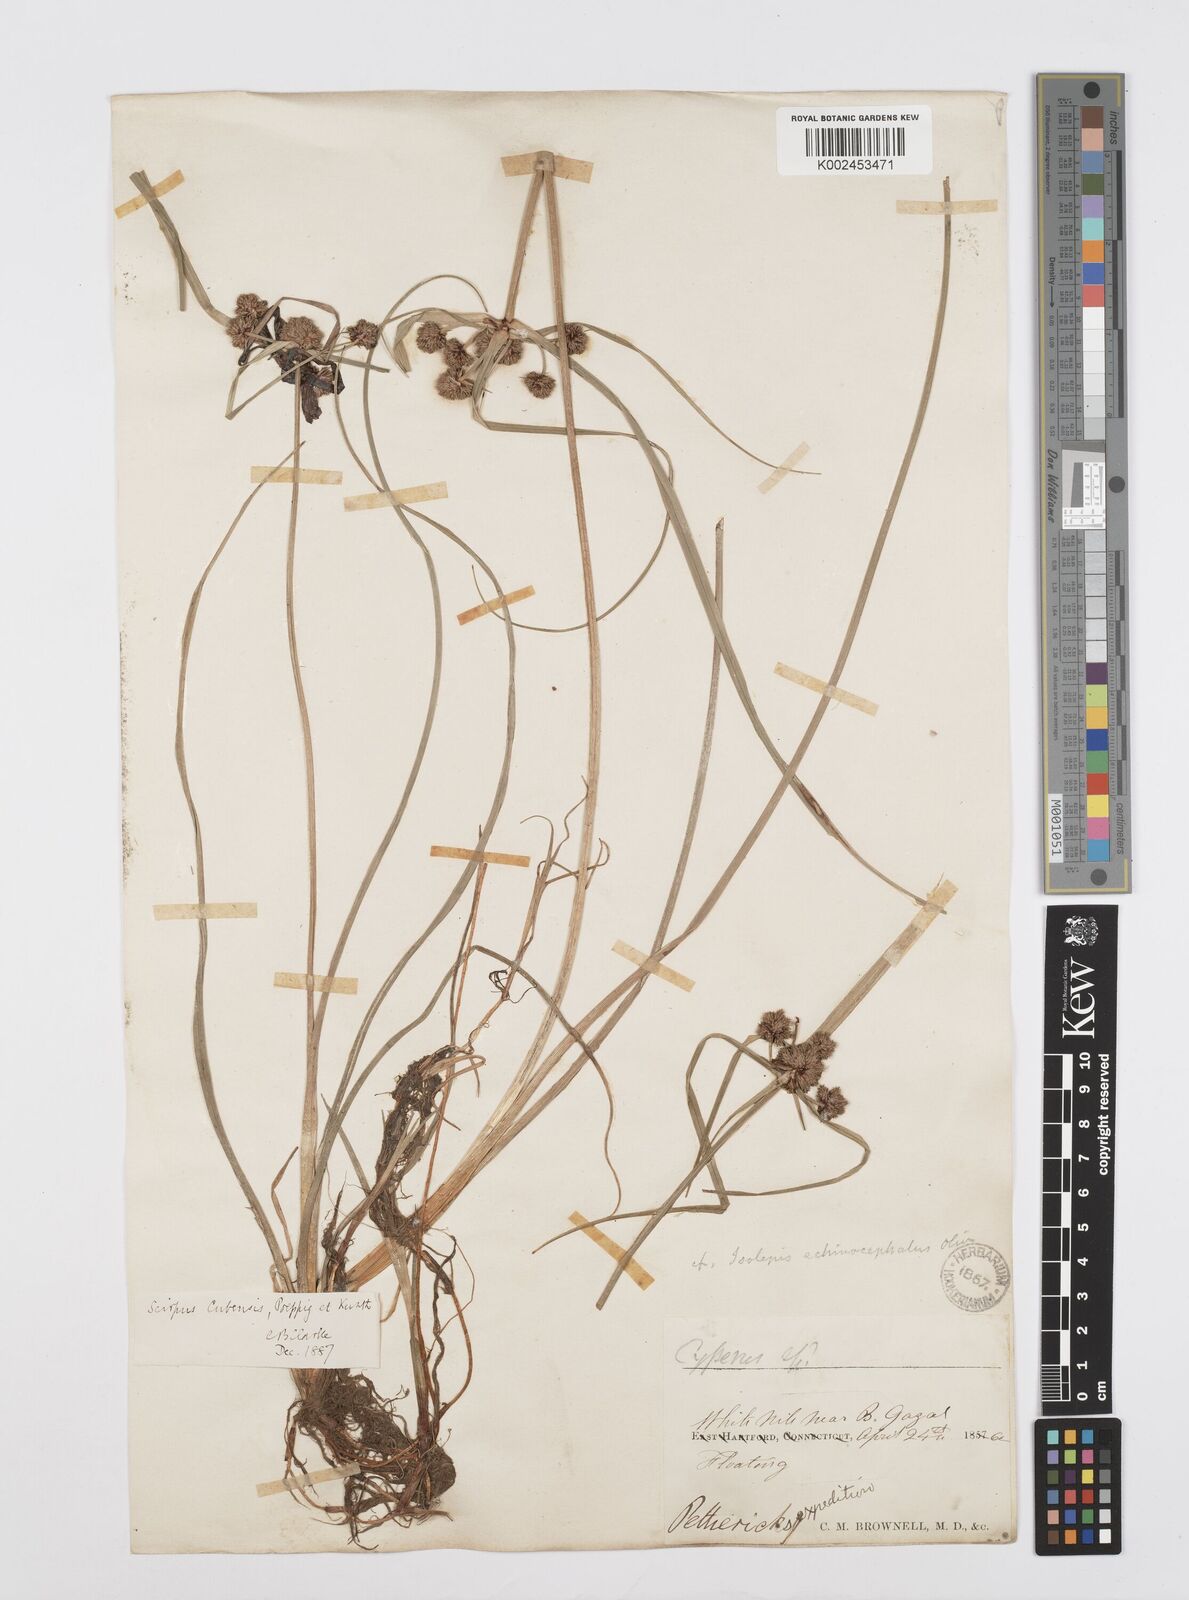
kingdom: Plantae
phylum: Tracheophyta
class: Liliopsida
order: Poales
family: Cyperaceae
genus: Cyperus
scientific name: Cyperus elegans
